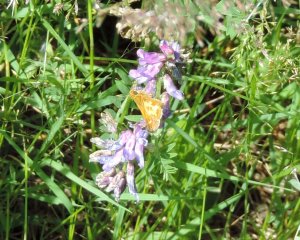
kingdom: Animalia
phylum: Arthropoda
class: Insecta
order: Lepidoptera
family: Hesperiidae
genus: Polites
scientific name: Polites coras
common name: Peck's Skipper
